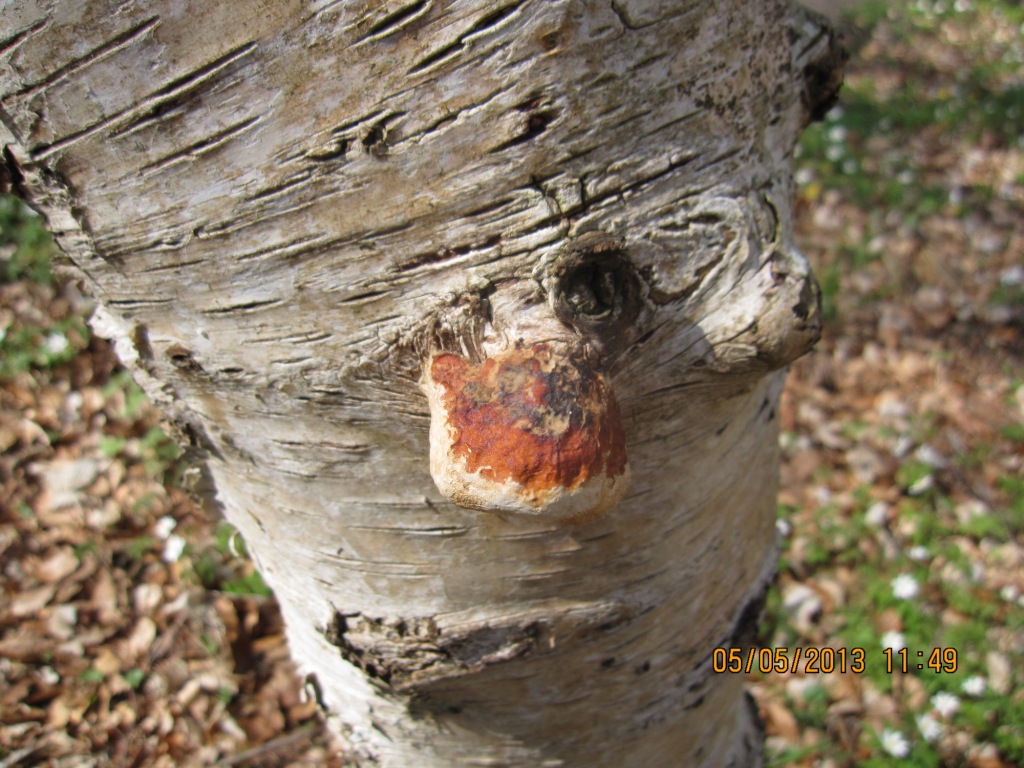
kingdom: Fungi
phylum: Basidiomycota
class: Agaricomycetes
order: Polyporales
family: Fomitopsidaceae
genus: Fomitopsis
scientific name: Fomitopsis pinicola
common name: randbæltet hovporesvamp
